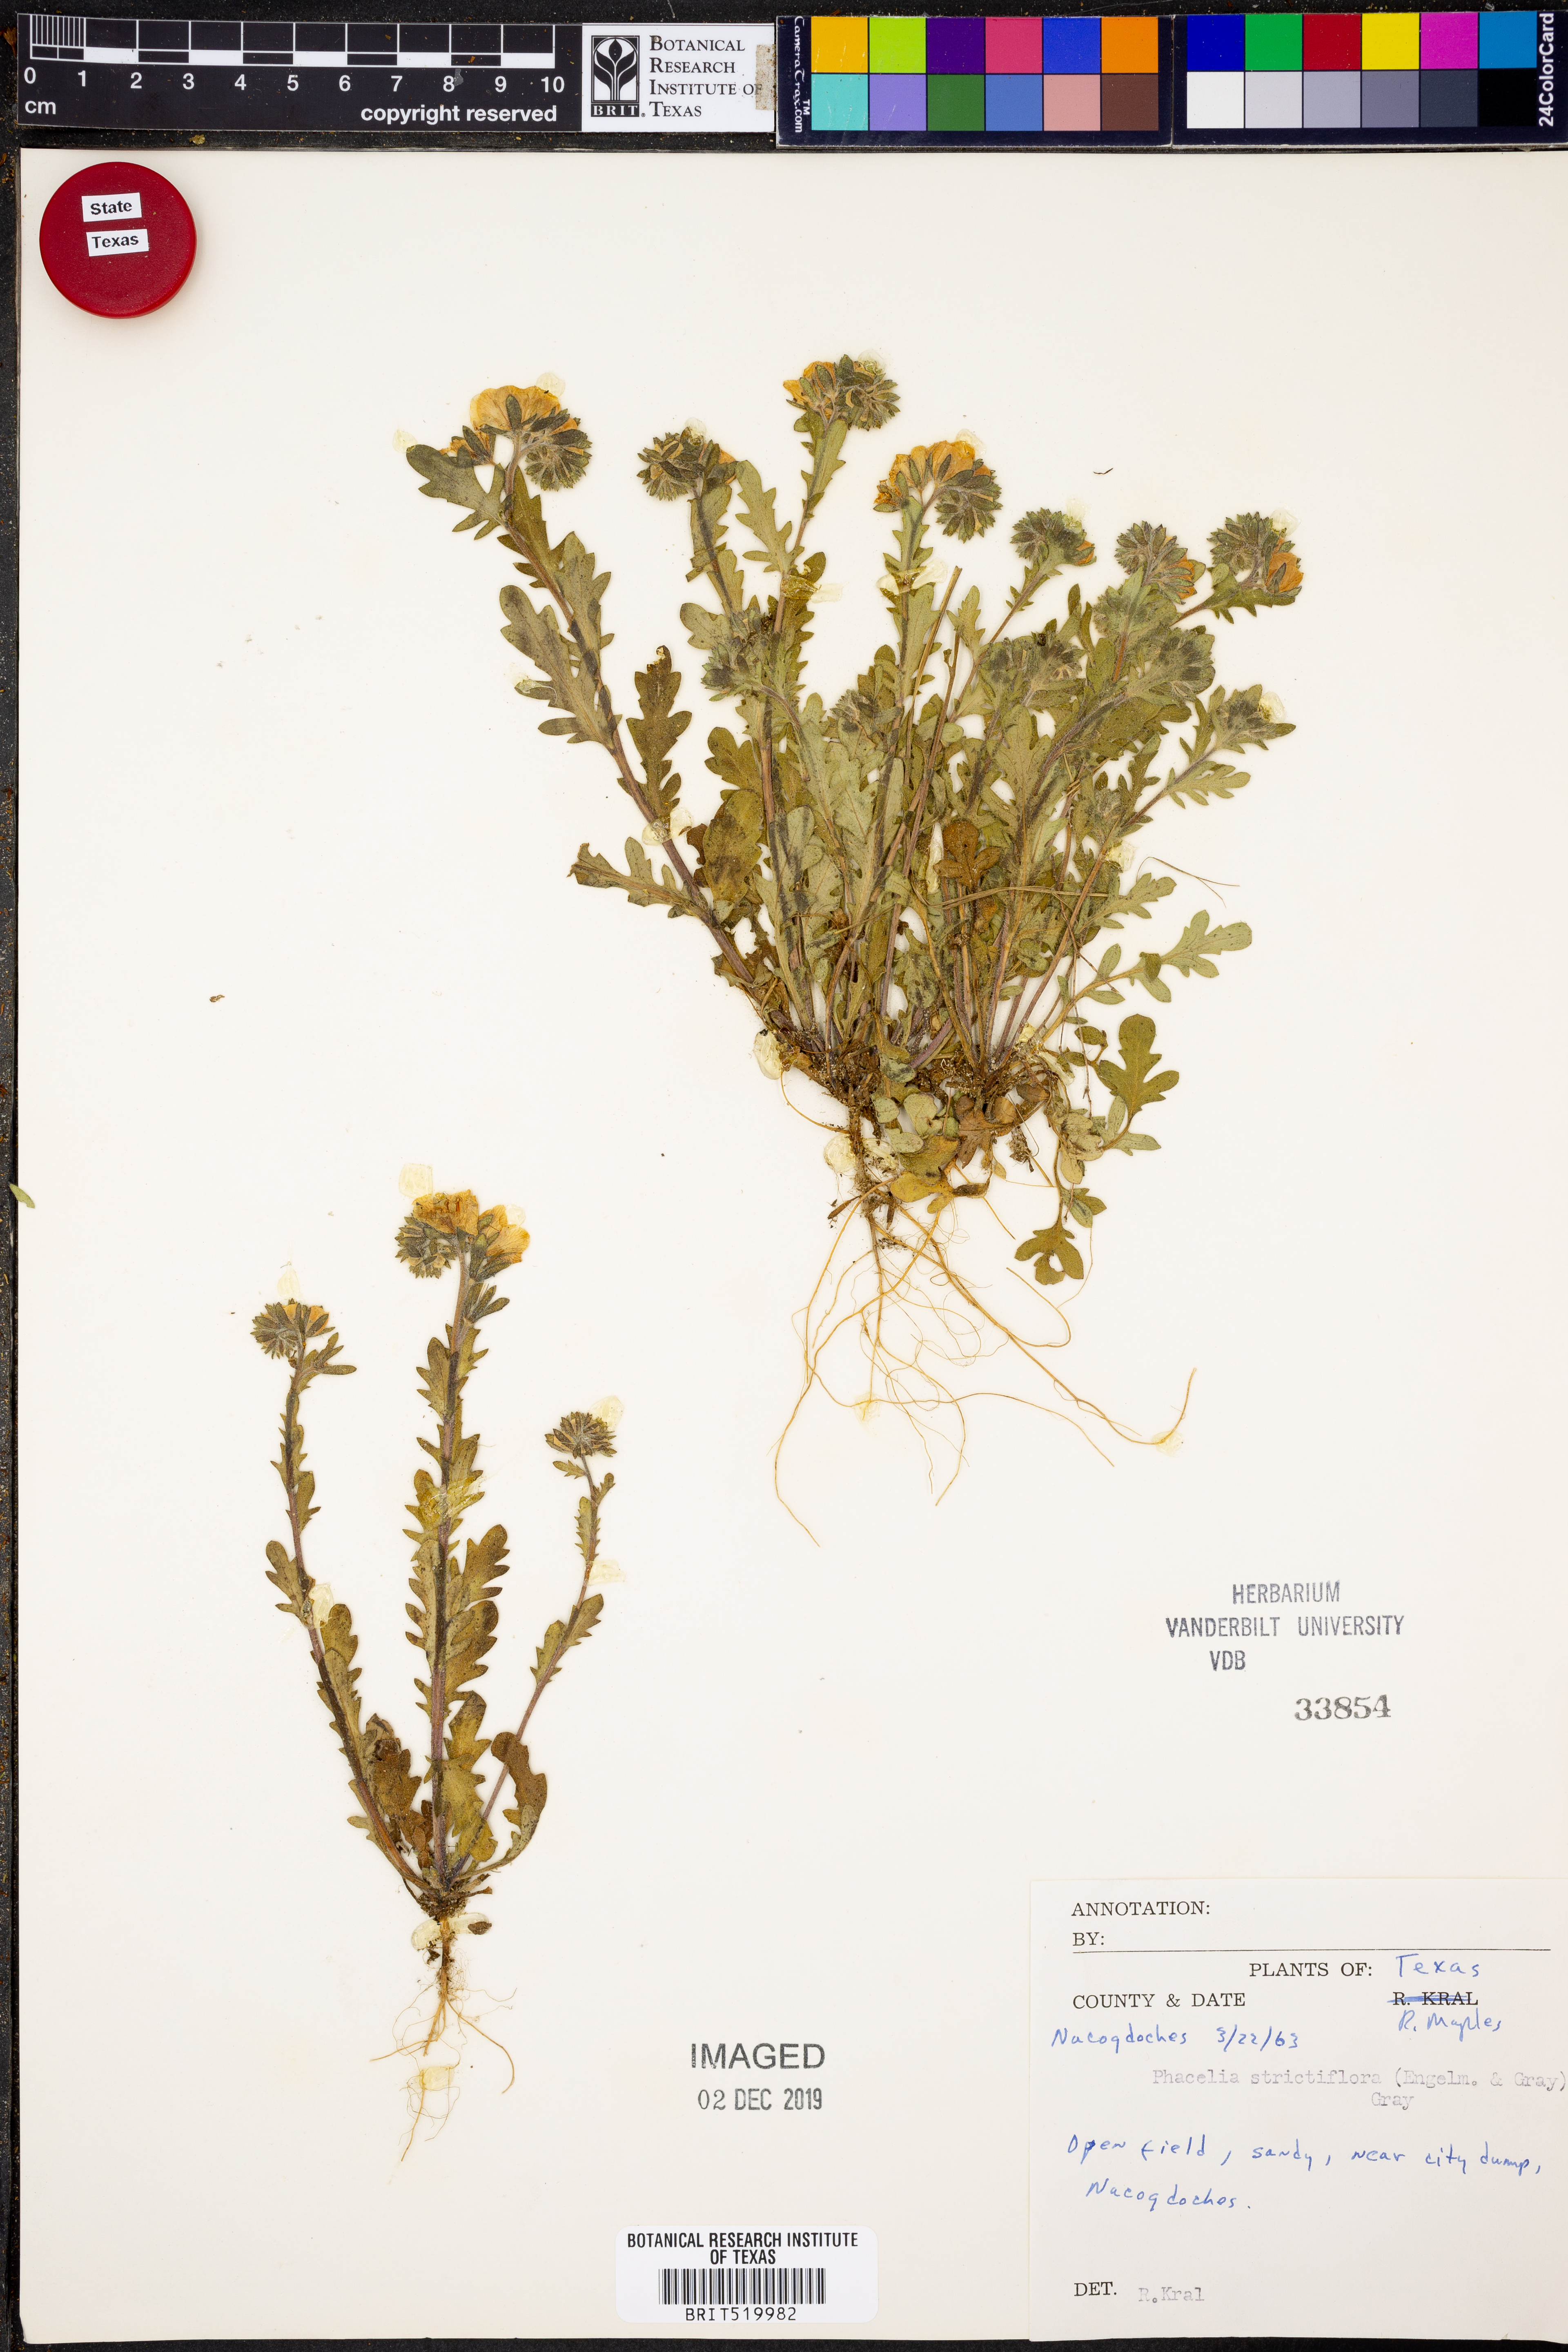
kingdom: Plantae
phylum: Tracheophyta
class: Magnoliopsida
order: Boraginales
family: Hydrophyllaceae
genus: Phacelia
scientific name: Phacelia strictiflora
